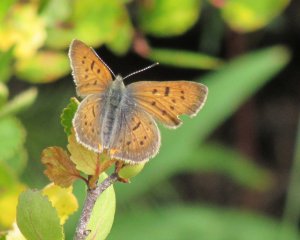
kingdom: Animalia
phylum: Arthropoda
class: Insecta
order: Lepidoptera
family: Lycaenidae
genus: Lycaena
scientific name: Lycaena cupreus
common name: Lustrous Copper
